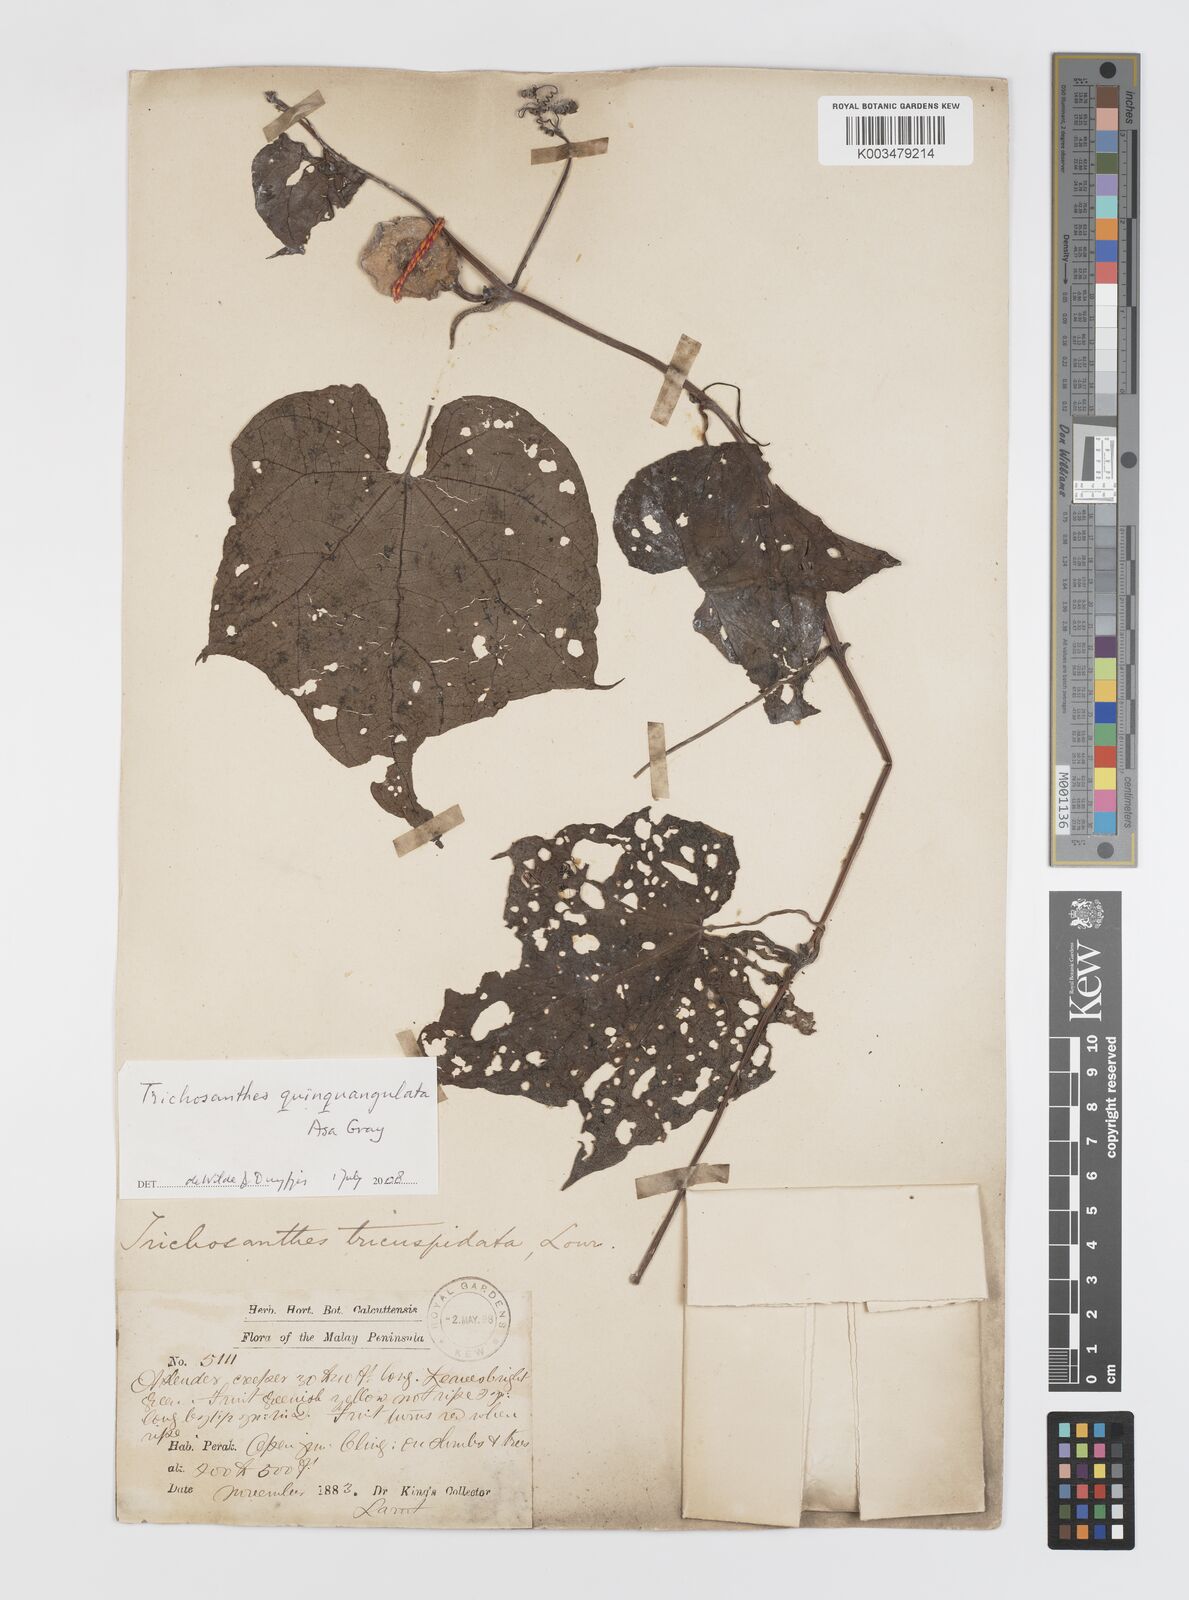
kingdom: Plantae
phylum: Tracheophyta
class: Magnoliopsida
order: Cucurbitales
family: Cucurbitaceae
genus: Trichosanthes
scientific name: Trichosanthes quinquangulata
